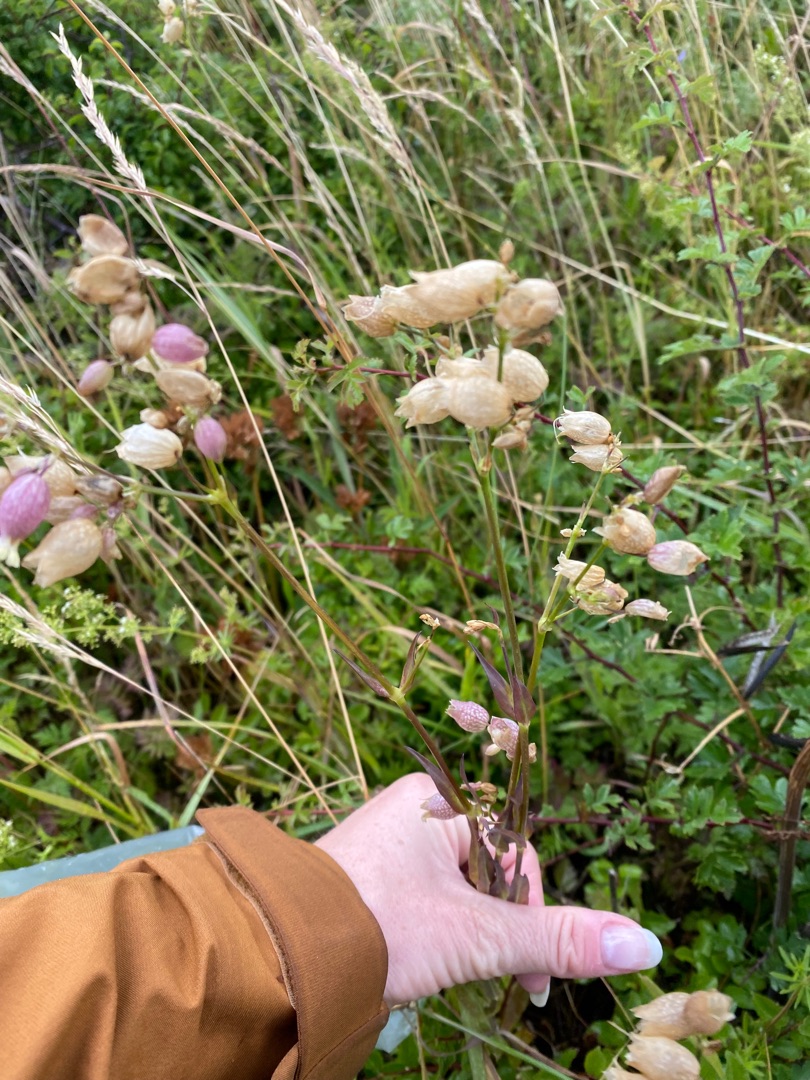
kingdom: Plantae
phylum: Tracheophyta
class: Magnoliopsida
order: Caryophyllales
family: Caryophyllaceae
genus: Silene
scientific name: Silene vulgaris
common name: Blæresmælde
